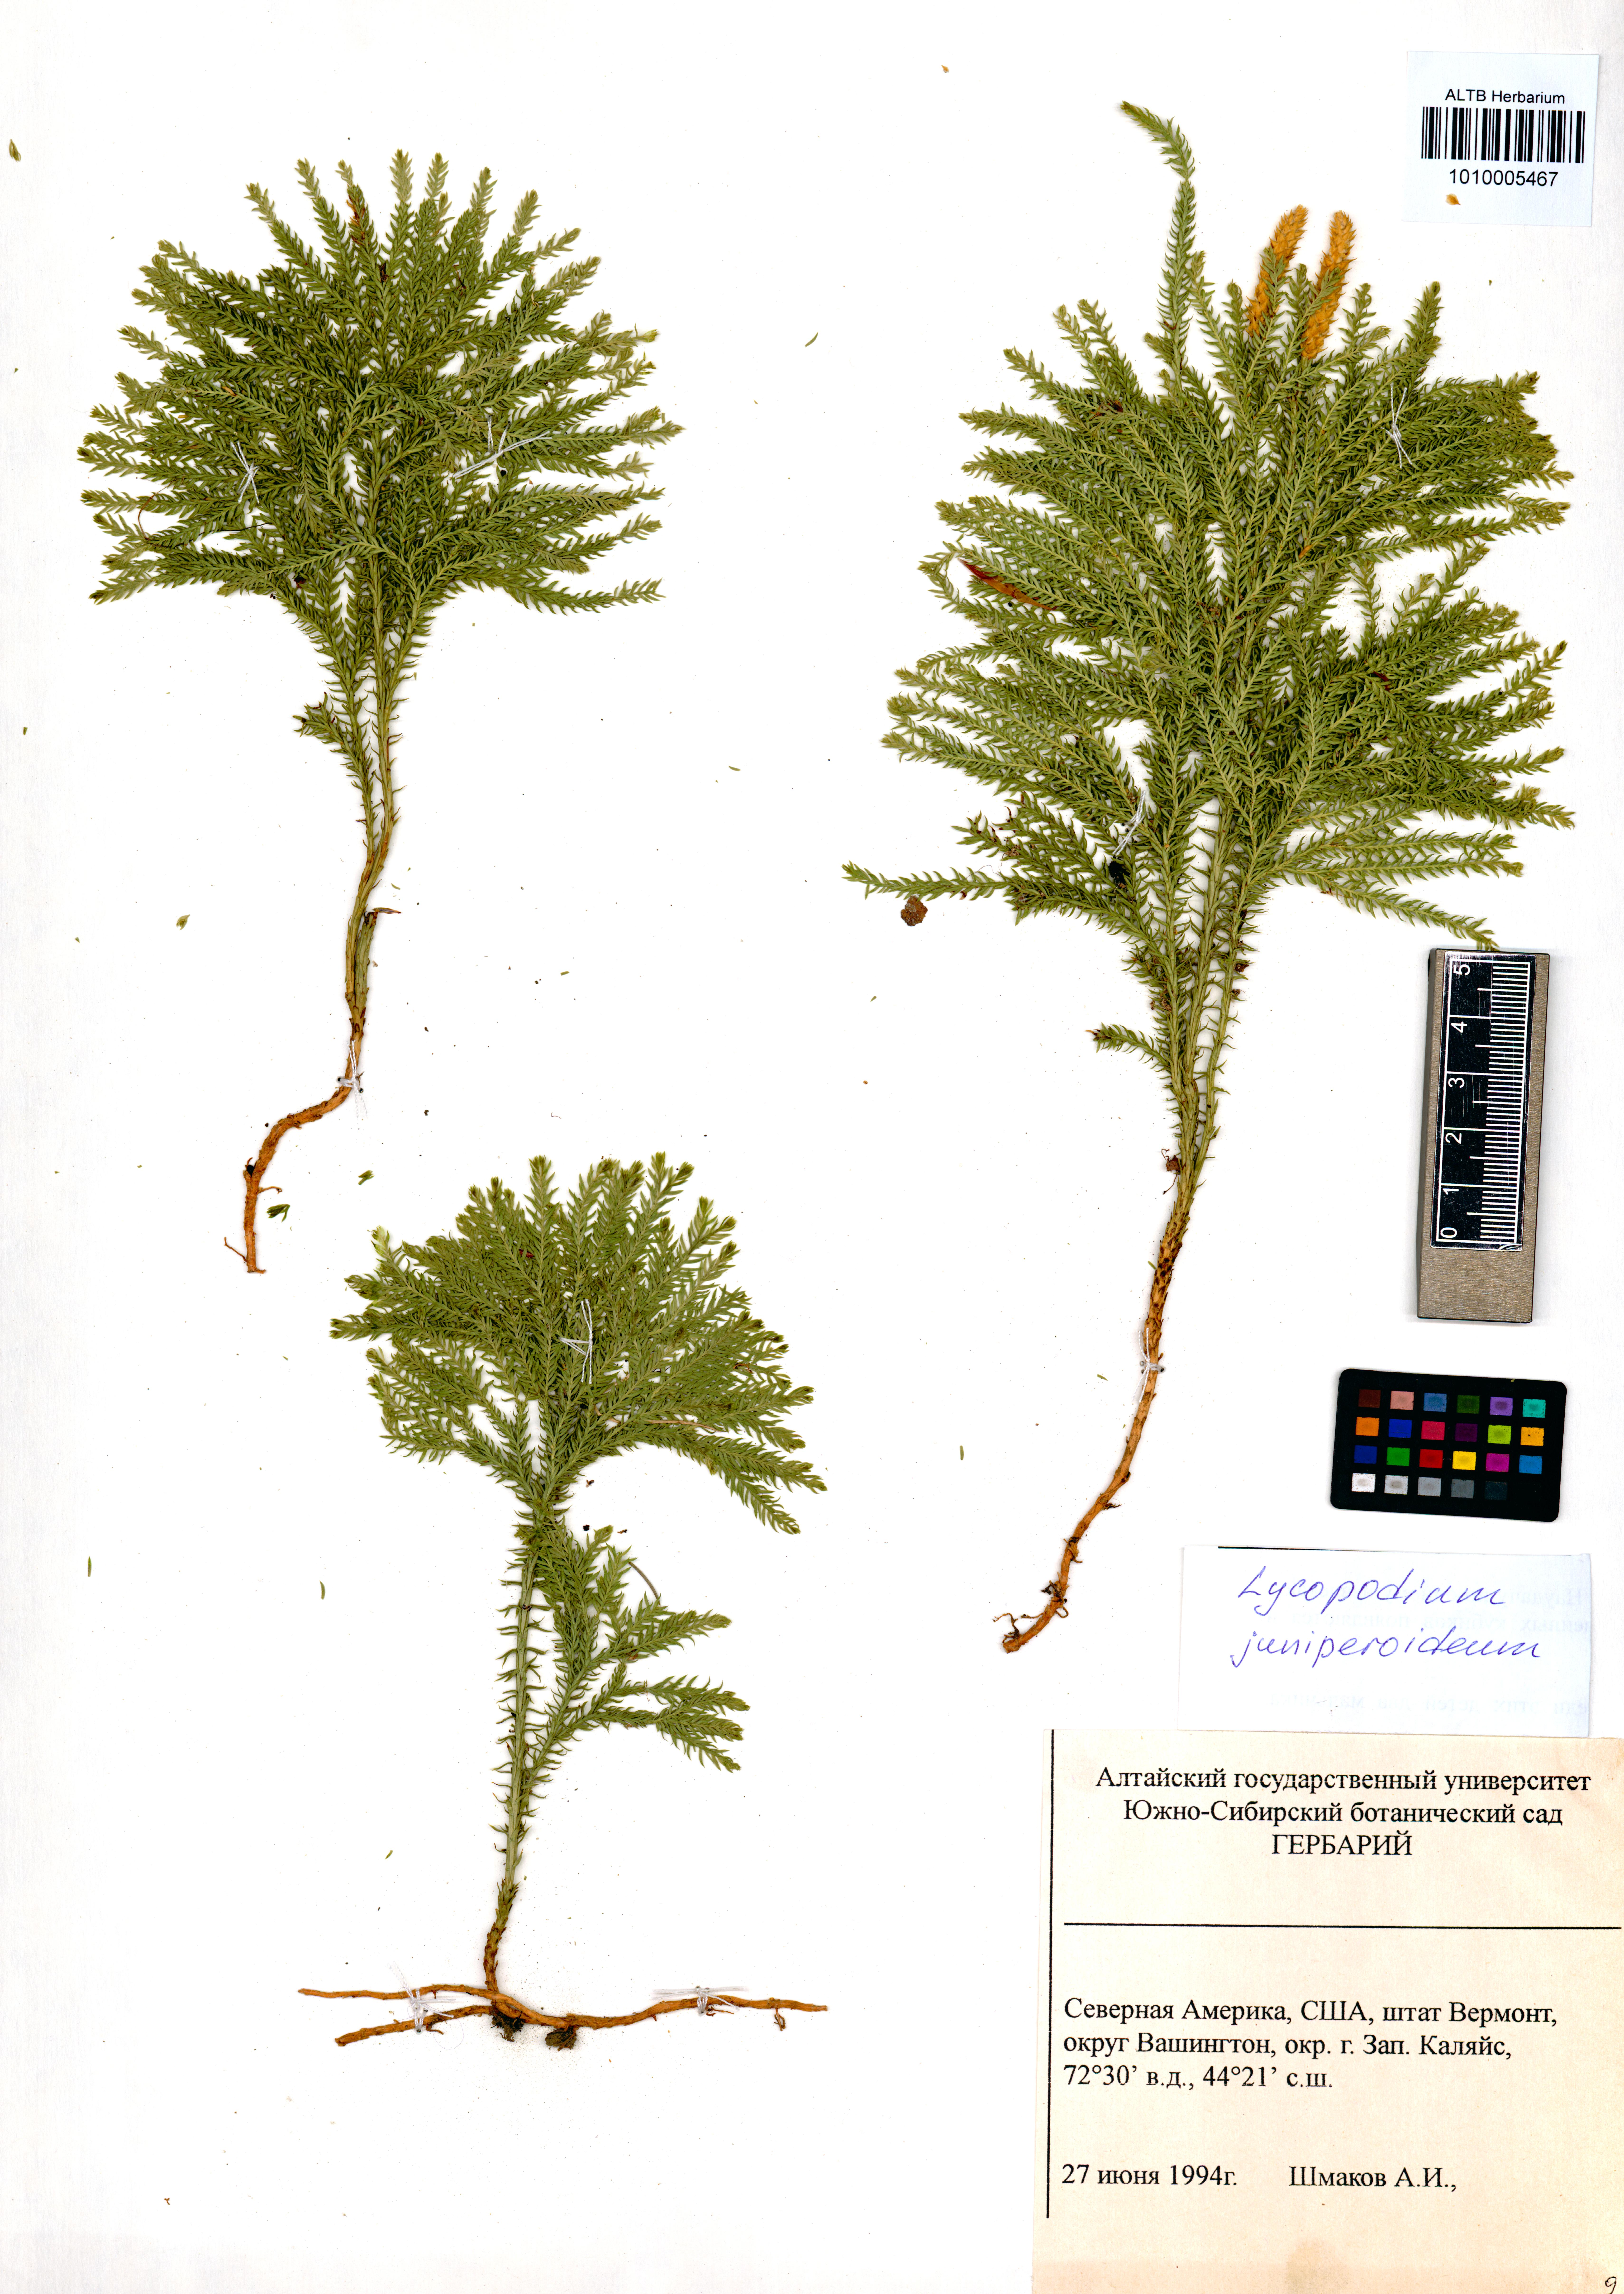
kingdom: Plantae
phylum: Tracheophyta
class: Lycopodiopsida
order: Lycopodiales
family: Lycopodiaceae
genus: Dendrolycopodium
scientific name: Dendrolycopodium juniperoideum
